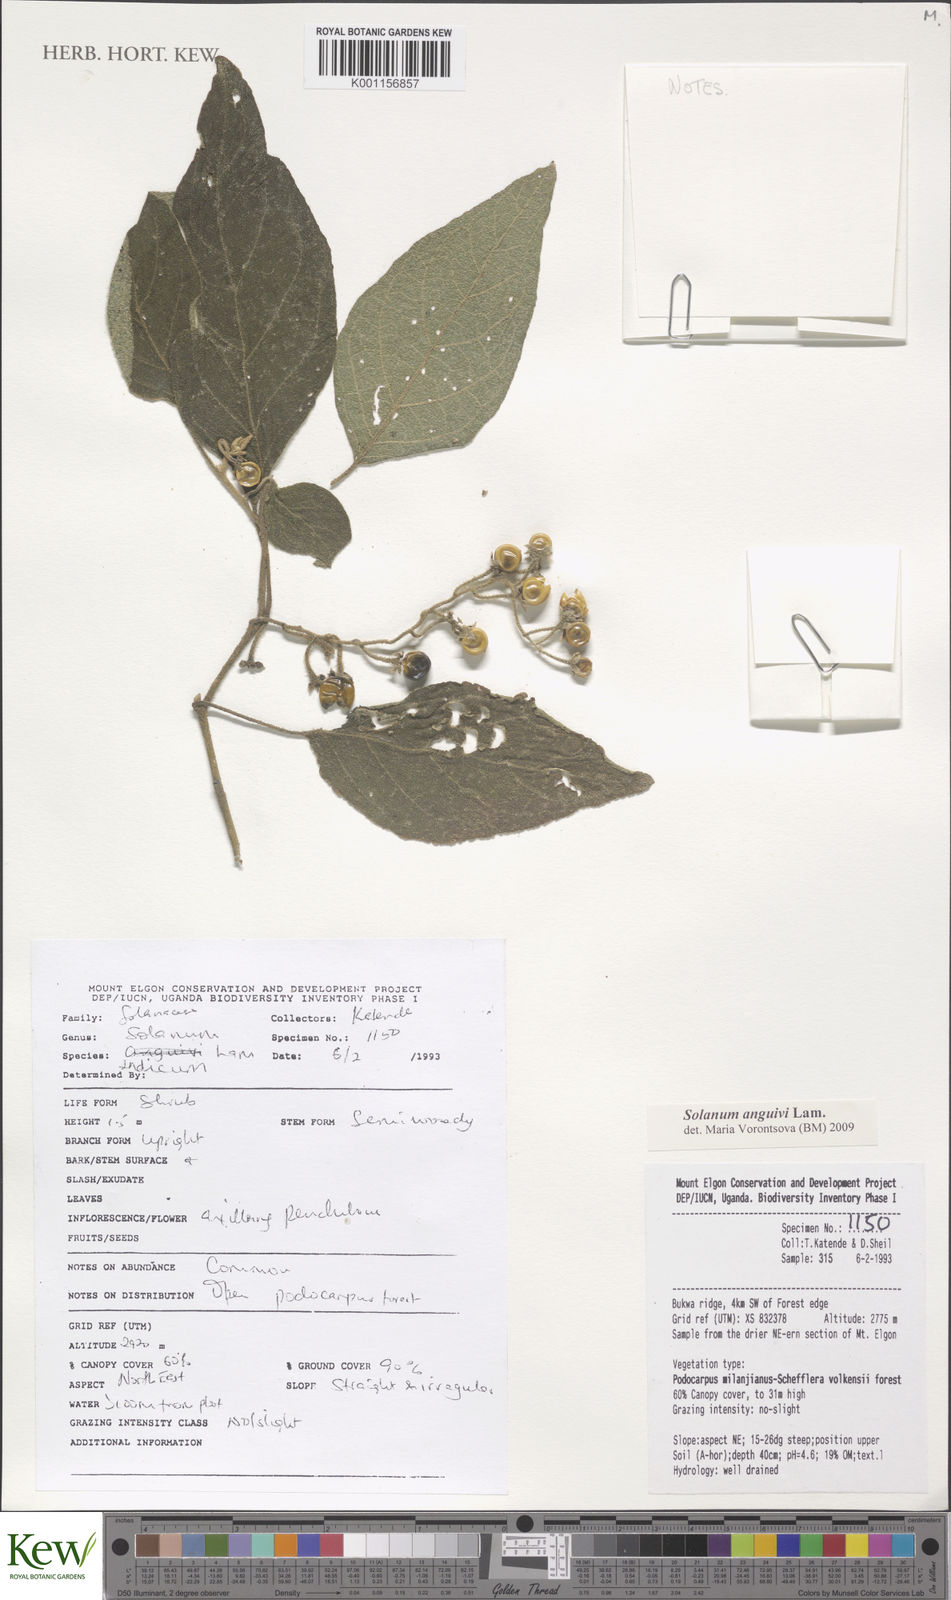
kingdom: Plantae
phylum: Tracheophyta
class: Magnoliopsida
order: Solanales
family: Solanaceae
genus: Solanum
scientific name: Solanum anguivi
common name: Forest bitterberry
